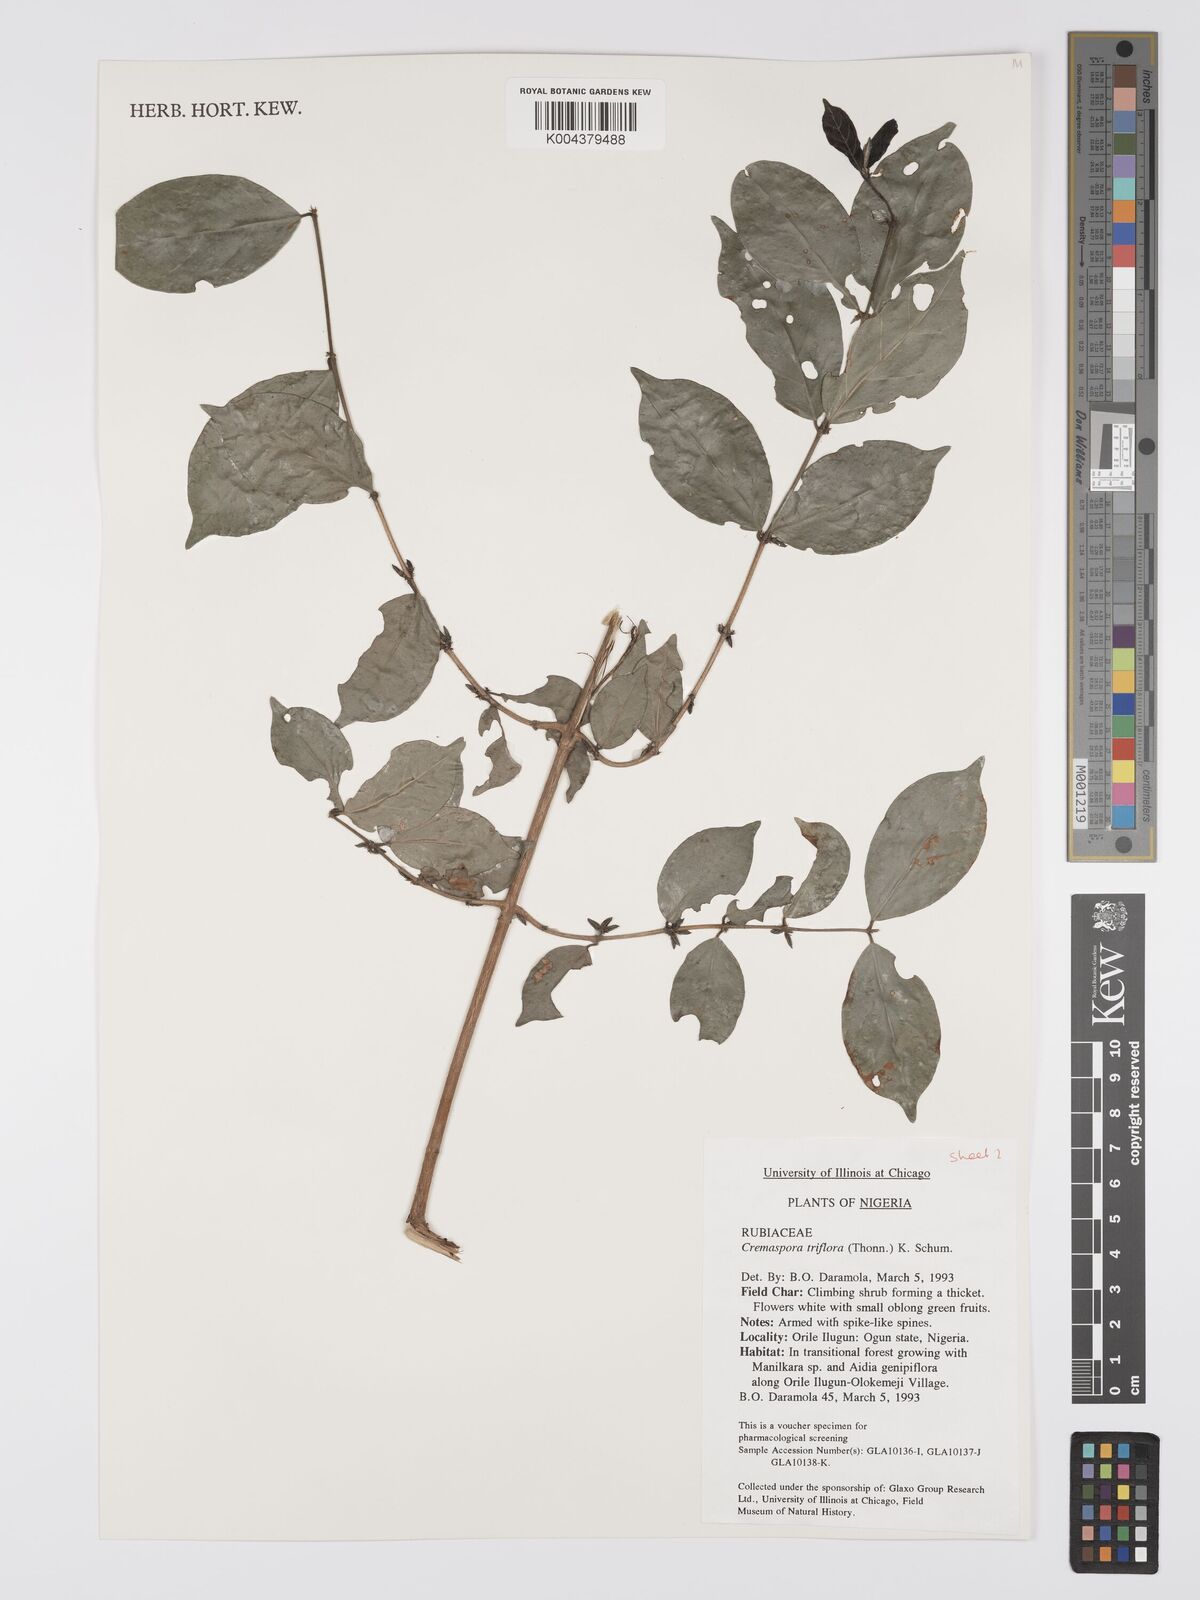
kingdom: Plantae
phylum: Tracheophyta
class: Magnoliopsida
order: Gentianales
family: Rubiaceae
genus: Cremaspora
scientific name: Cremaspora triflora
